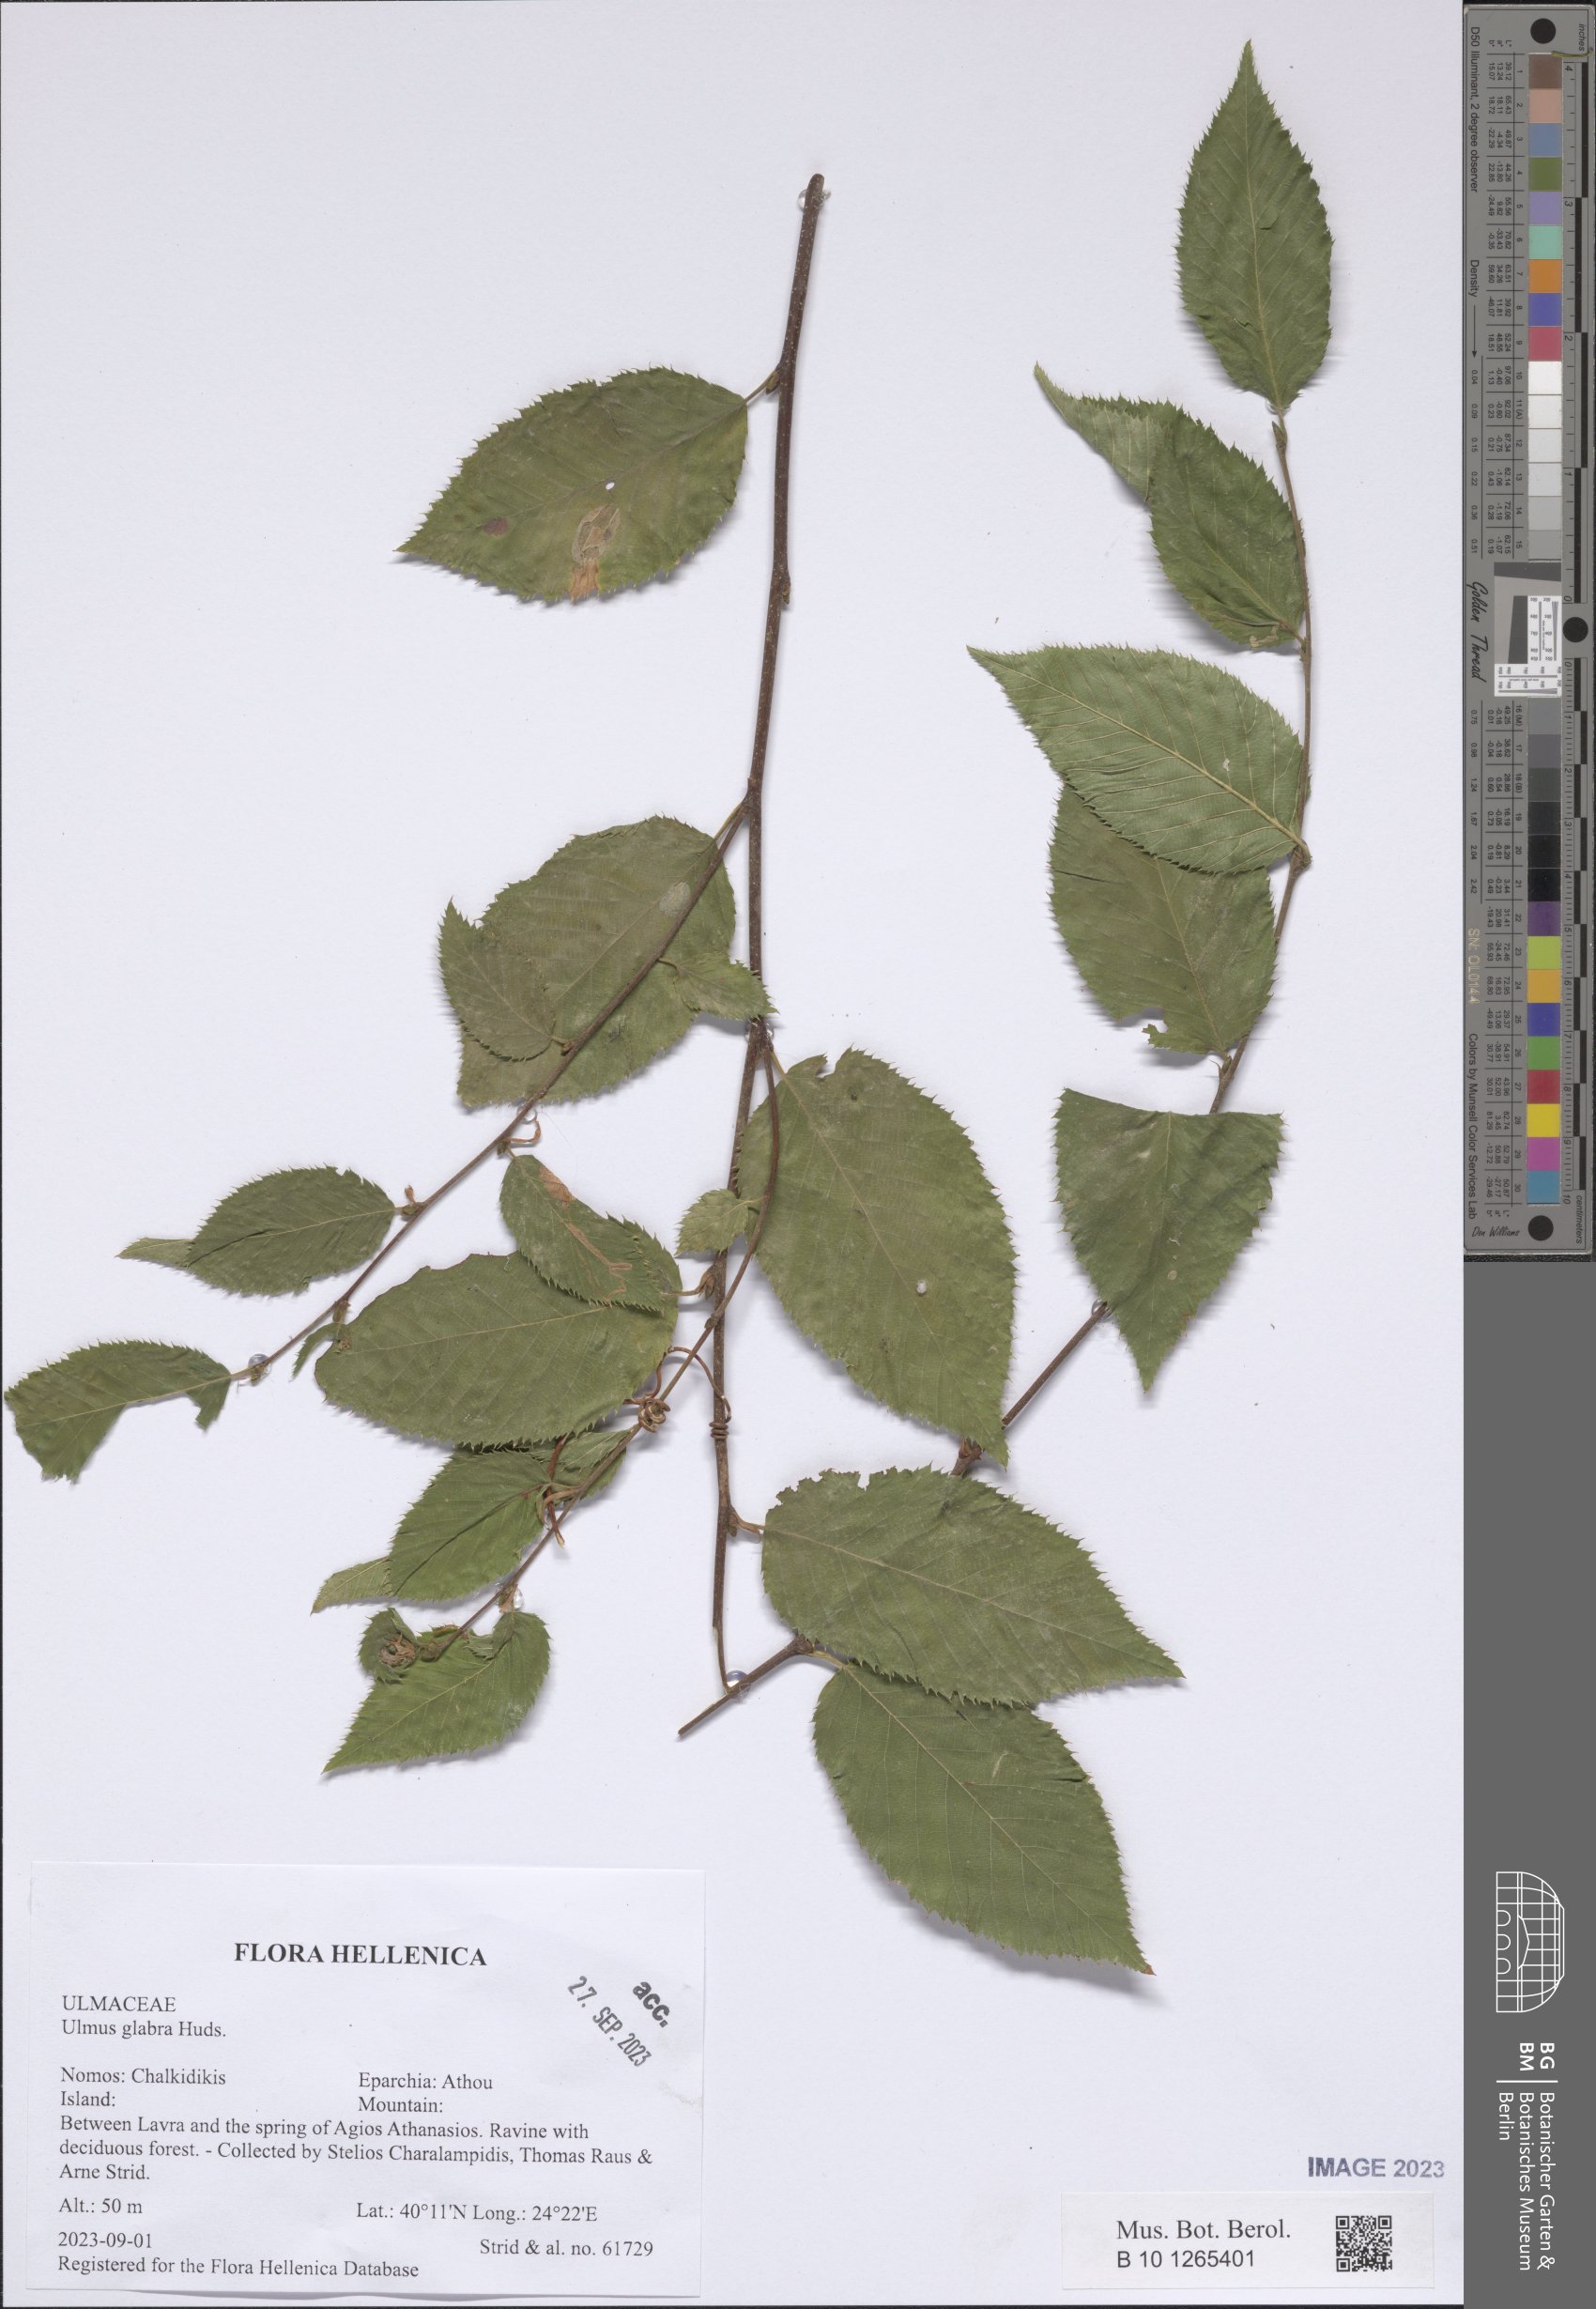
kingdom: Plantae
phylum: Tracheophyta
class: Magnoliopsida
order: Rosales
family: Ulmaceae
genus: Ulmus
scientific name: Ulmus glabra
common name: Wych elm
